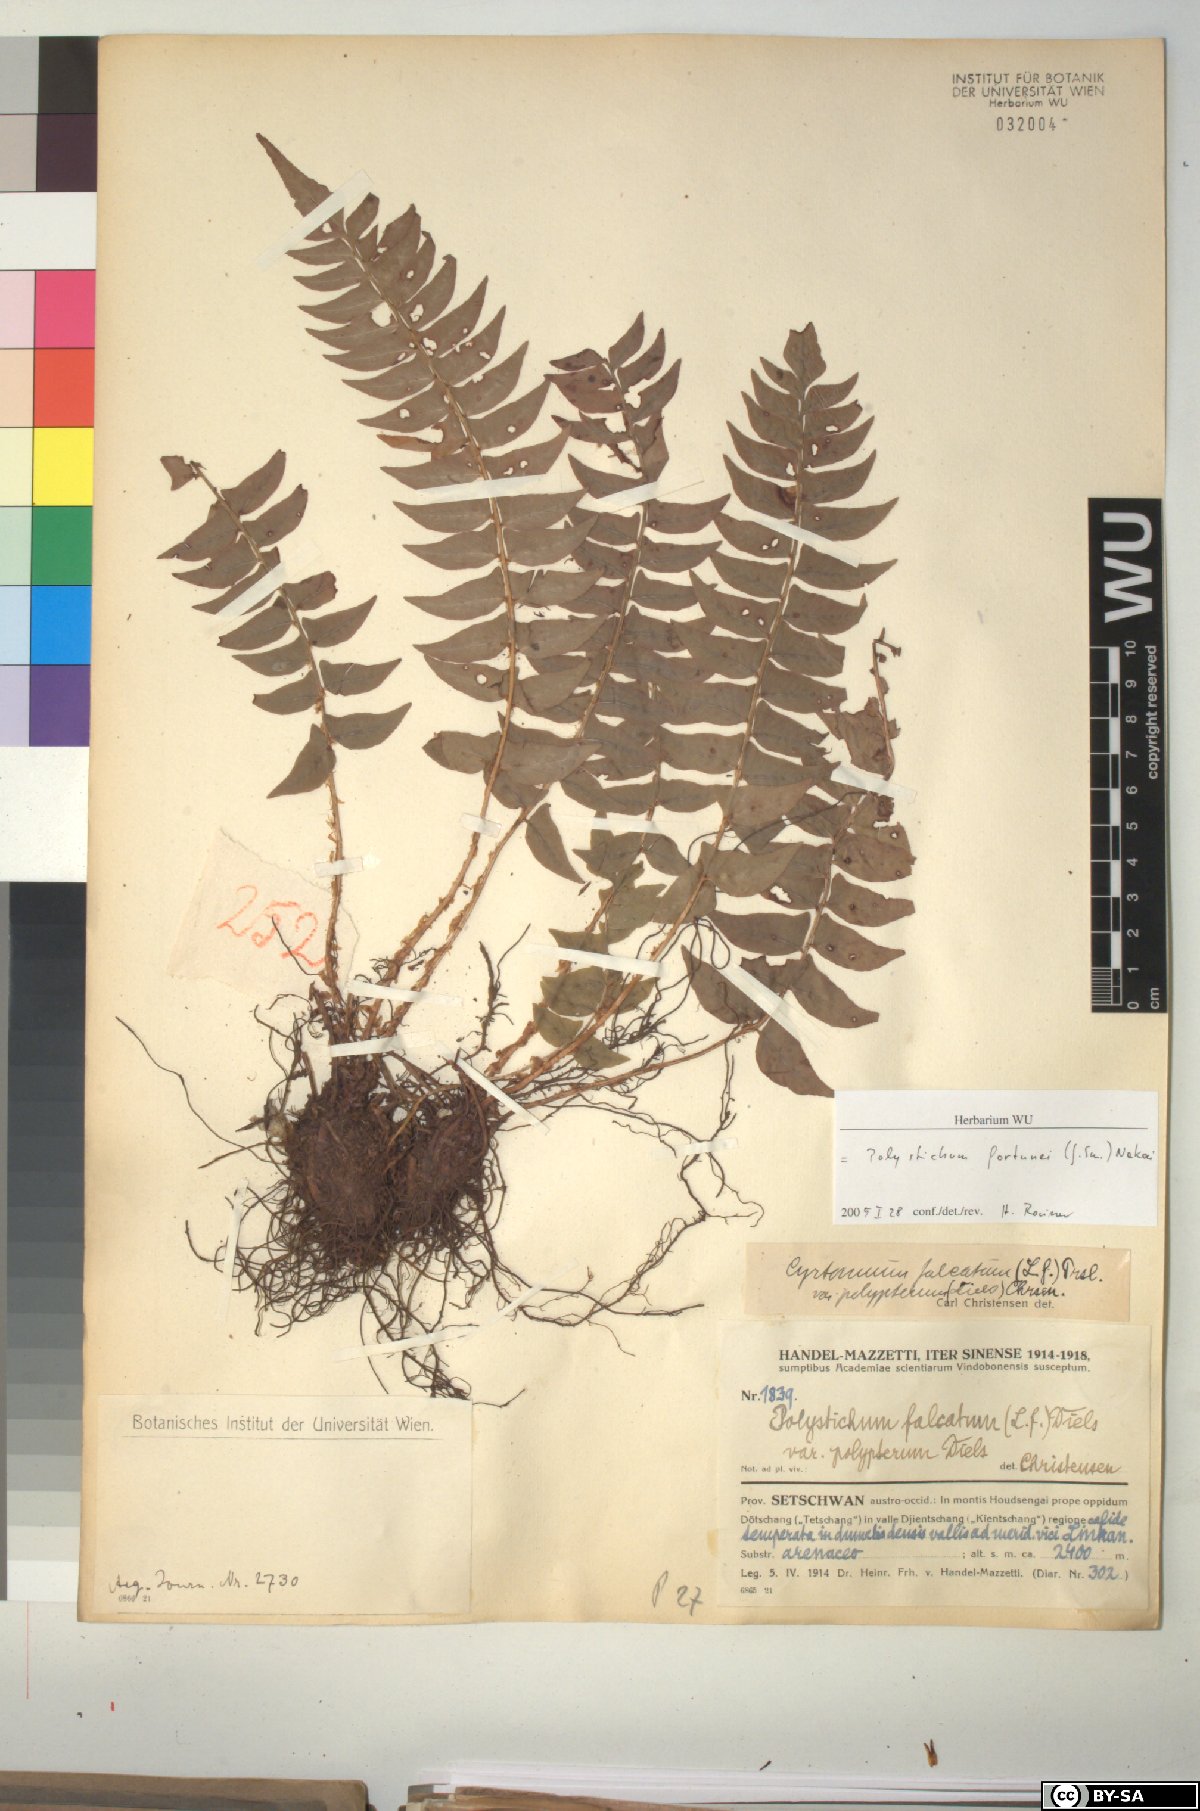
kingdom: Plantae
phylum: Tracheophyta
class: Polypodiopsida
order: Polypodiales
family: Dryopteridaceae
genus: Cyrtomium
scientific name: Cyrtomium fortunei
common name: Asian netvein hollyfern
